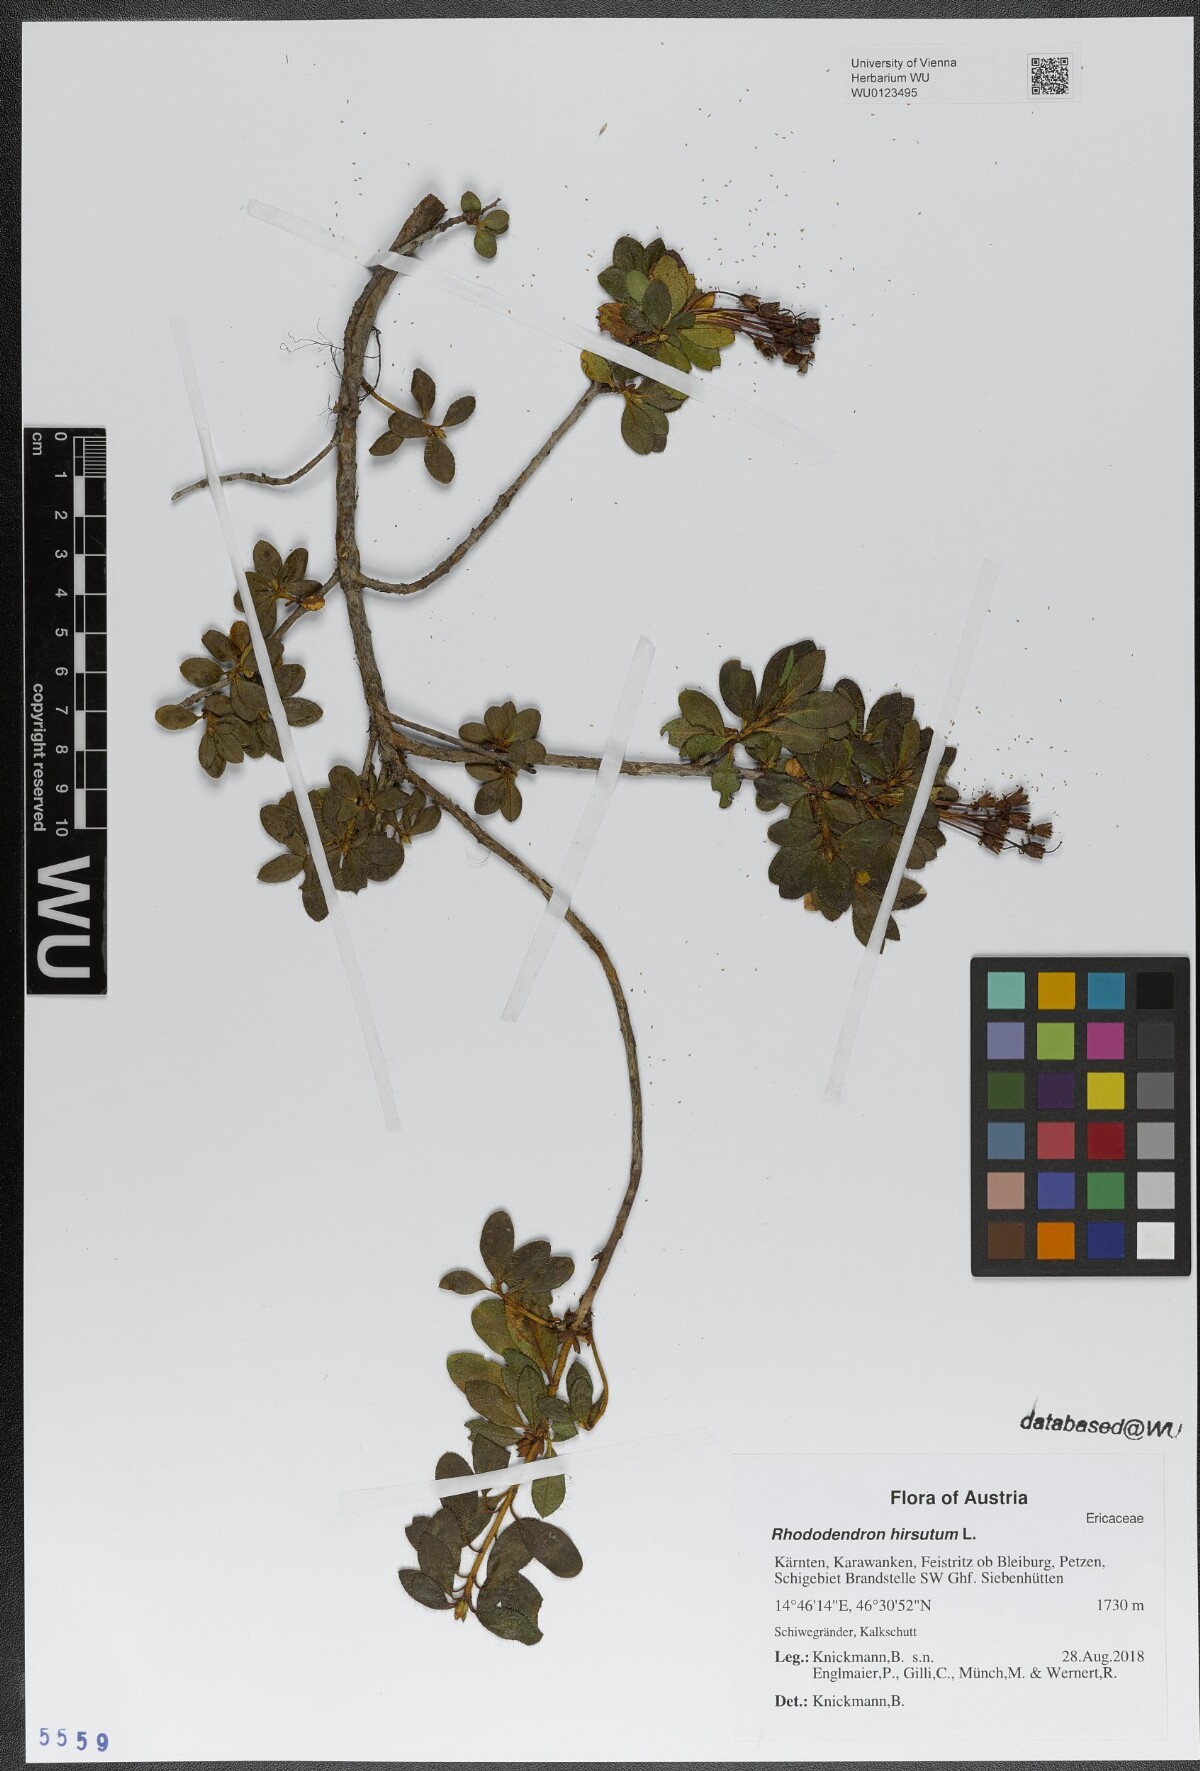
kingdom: Plantae
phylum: Tracheophyta
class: Magnoliopsida
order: Ericales
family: Ericaceae
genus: Rhododendron
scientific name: Rhododendron hirsutum
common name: Hairy alpenrose
